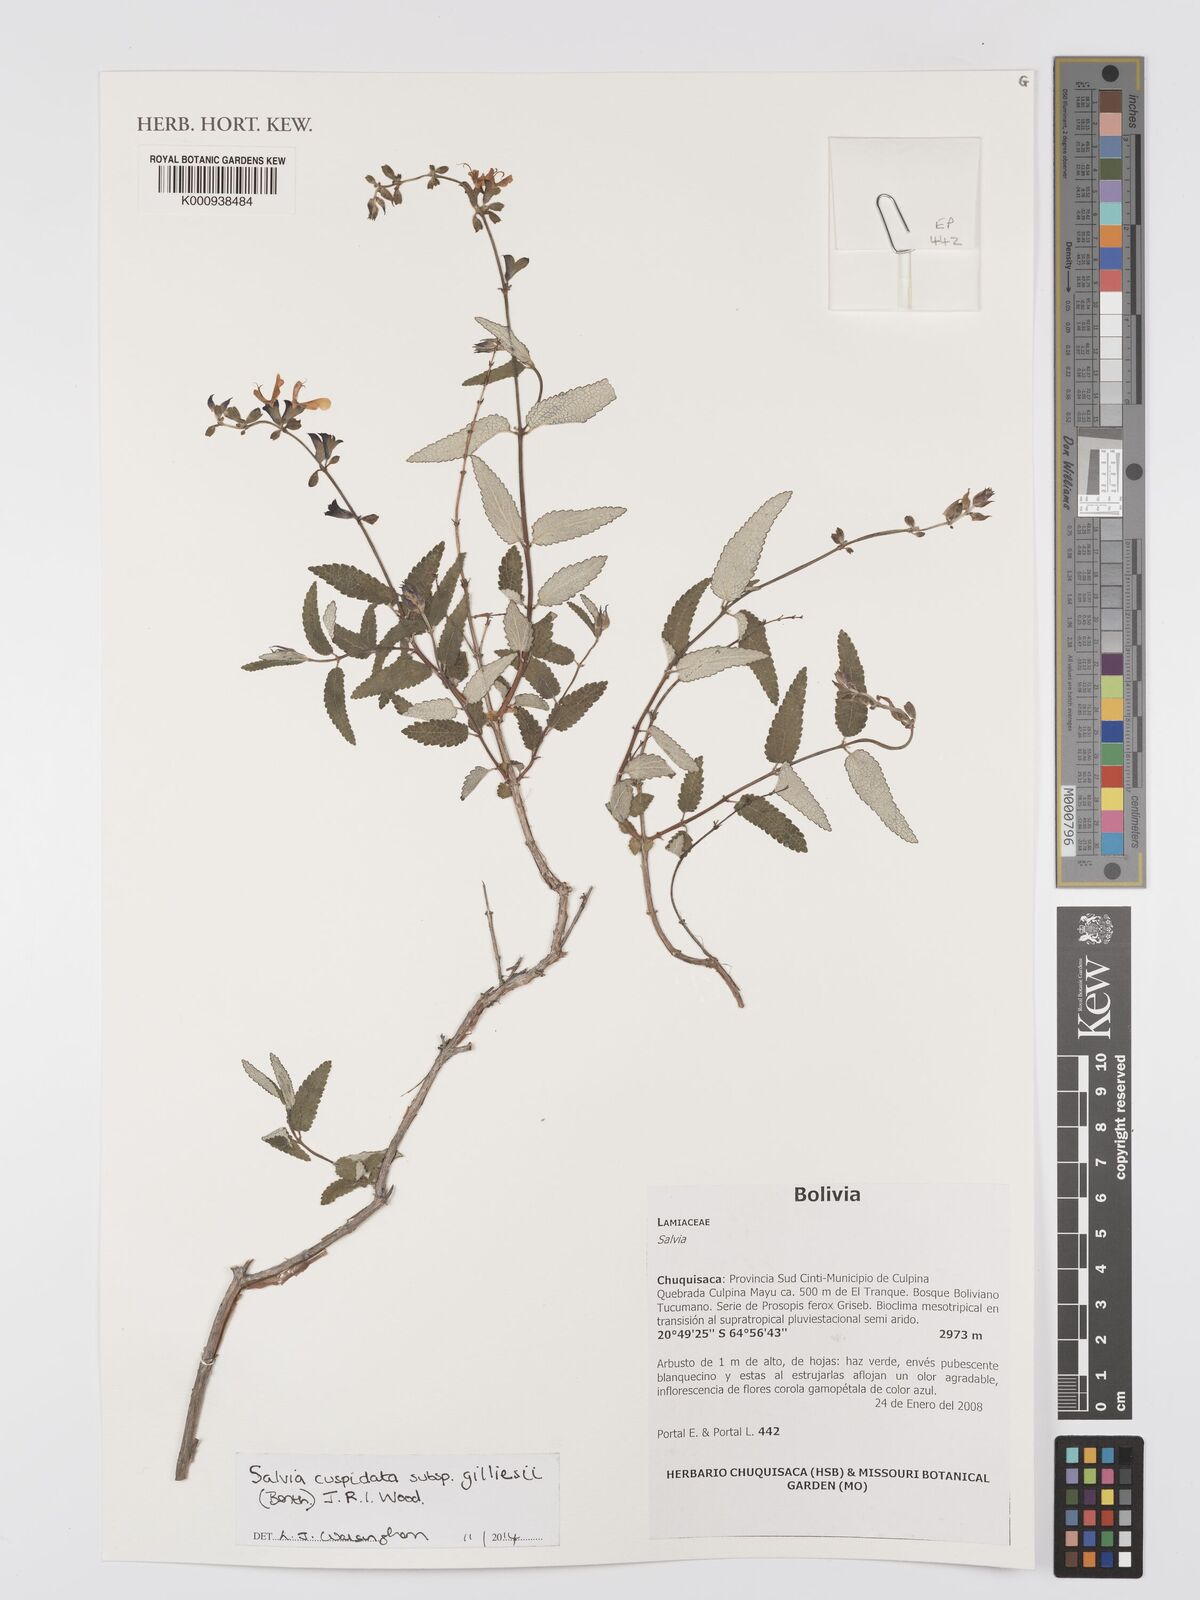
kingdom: Plantae
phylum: Tracheophyta
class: Magnoliopsida
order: Lamiales
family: Lamiaceae
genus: Salvia
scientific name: Salvia cuspidata
